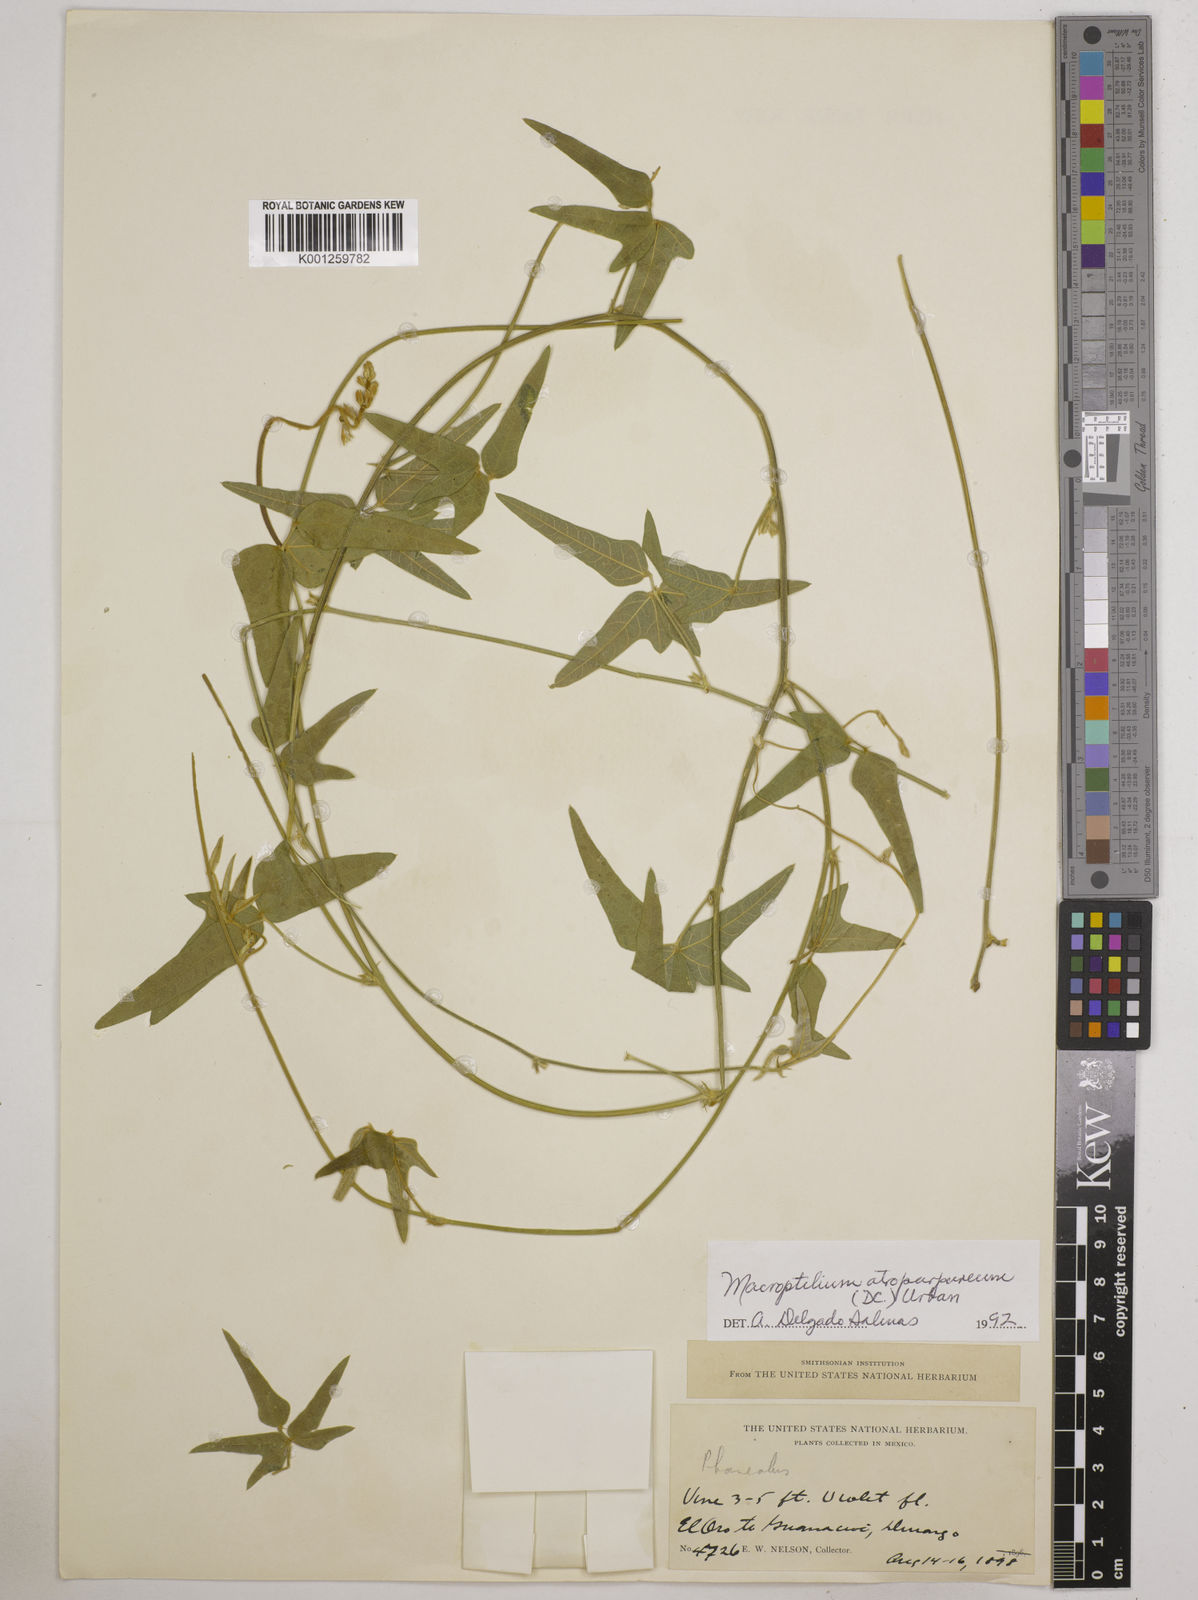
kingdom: Plantae
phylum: Tracheophyta
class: Magnoliopsida
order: Fabales
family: Fabaceae
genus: Macroptilium
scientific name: Macroptilium atropurpureum
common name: Purple bushbean
